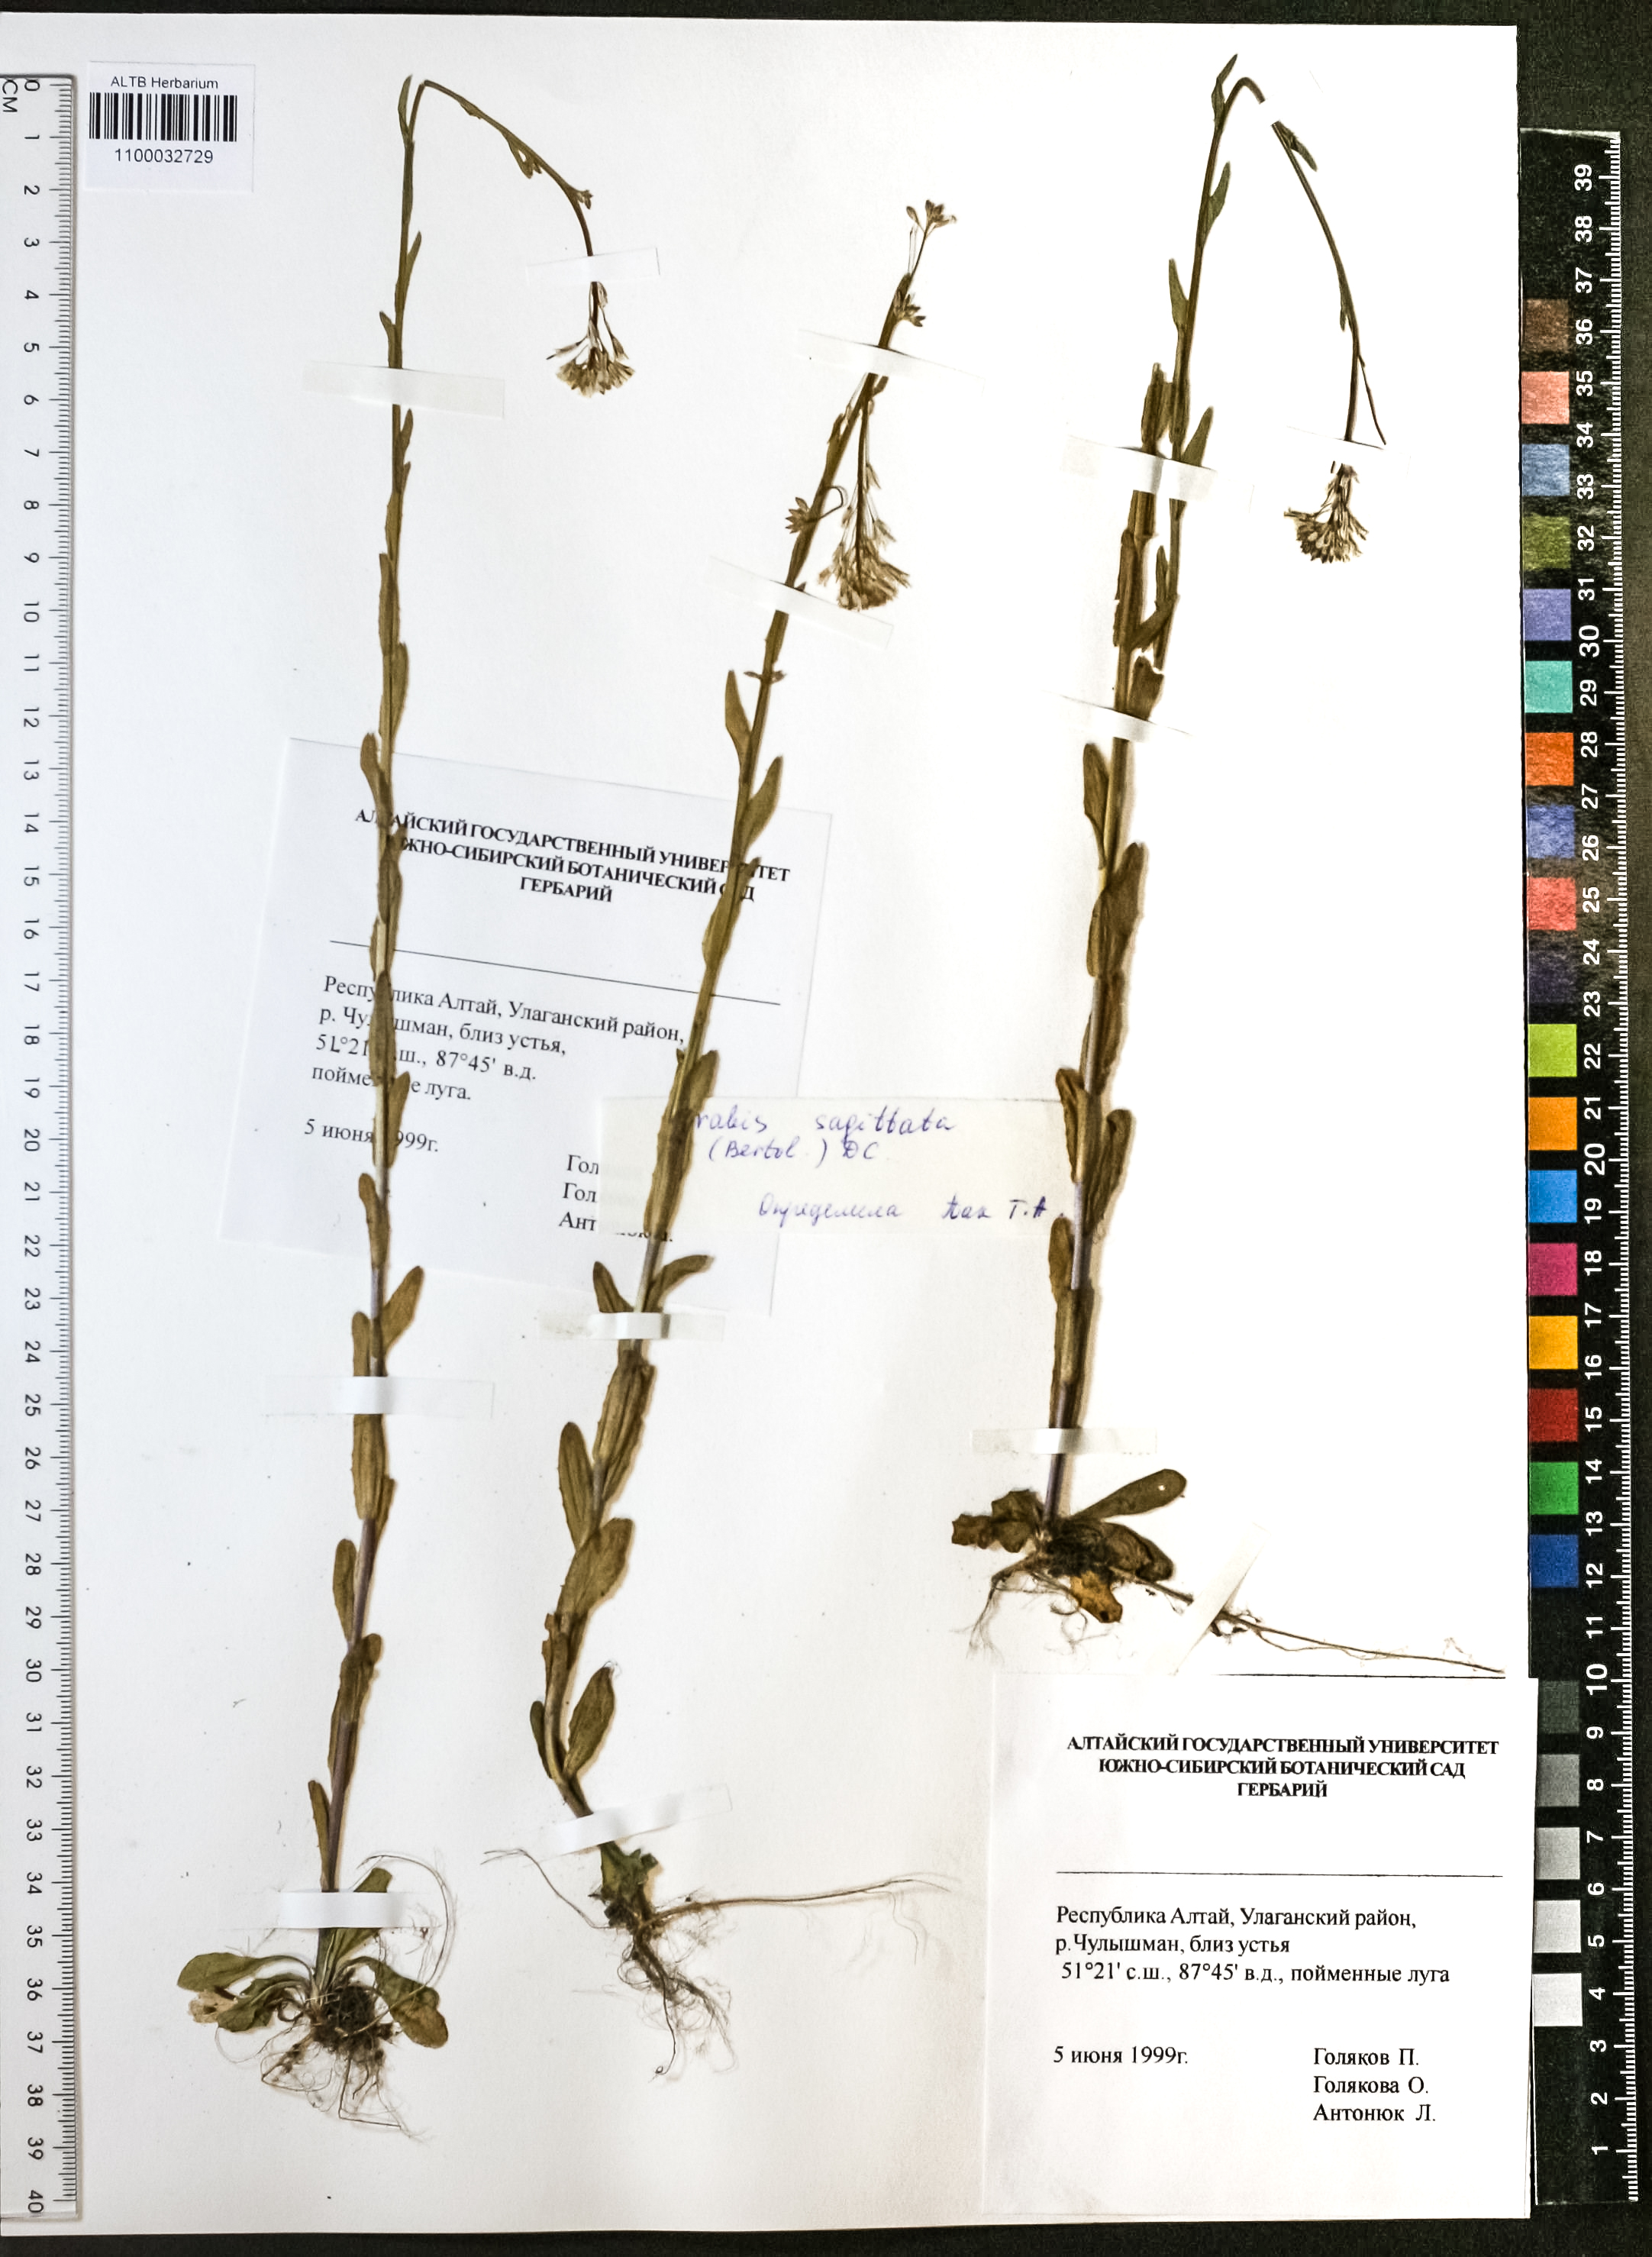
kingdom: Plantae
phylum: Tracheophyta
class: Magnoliopsida
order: Brassicales
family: Brassicaceae
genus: Arabis
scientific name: Arabis sagittata
